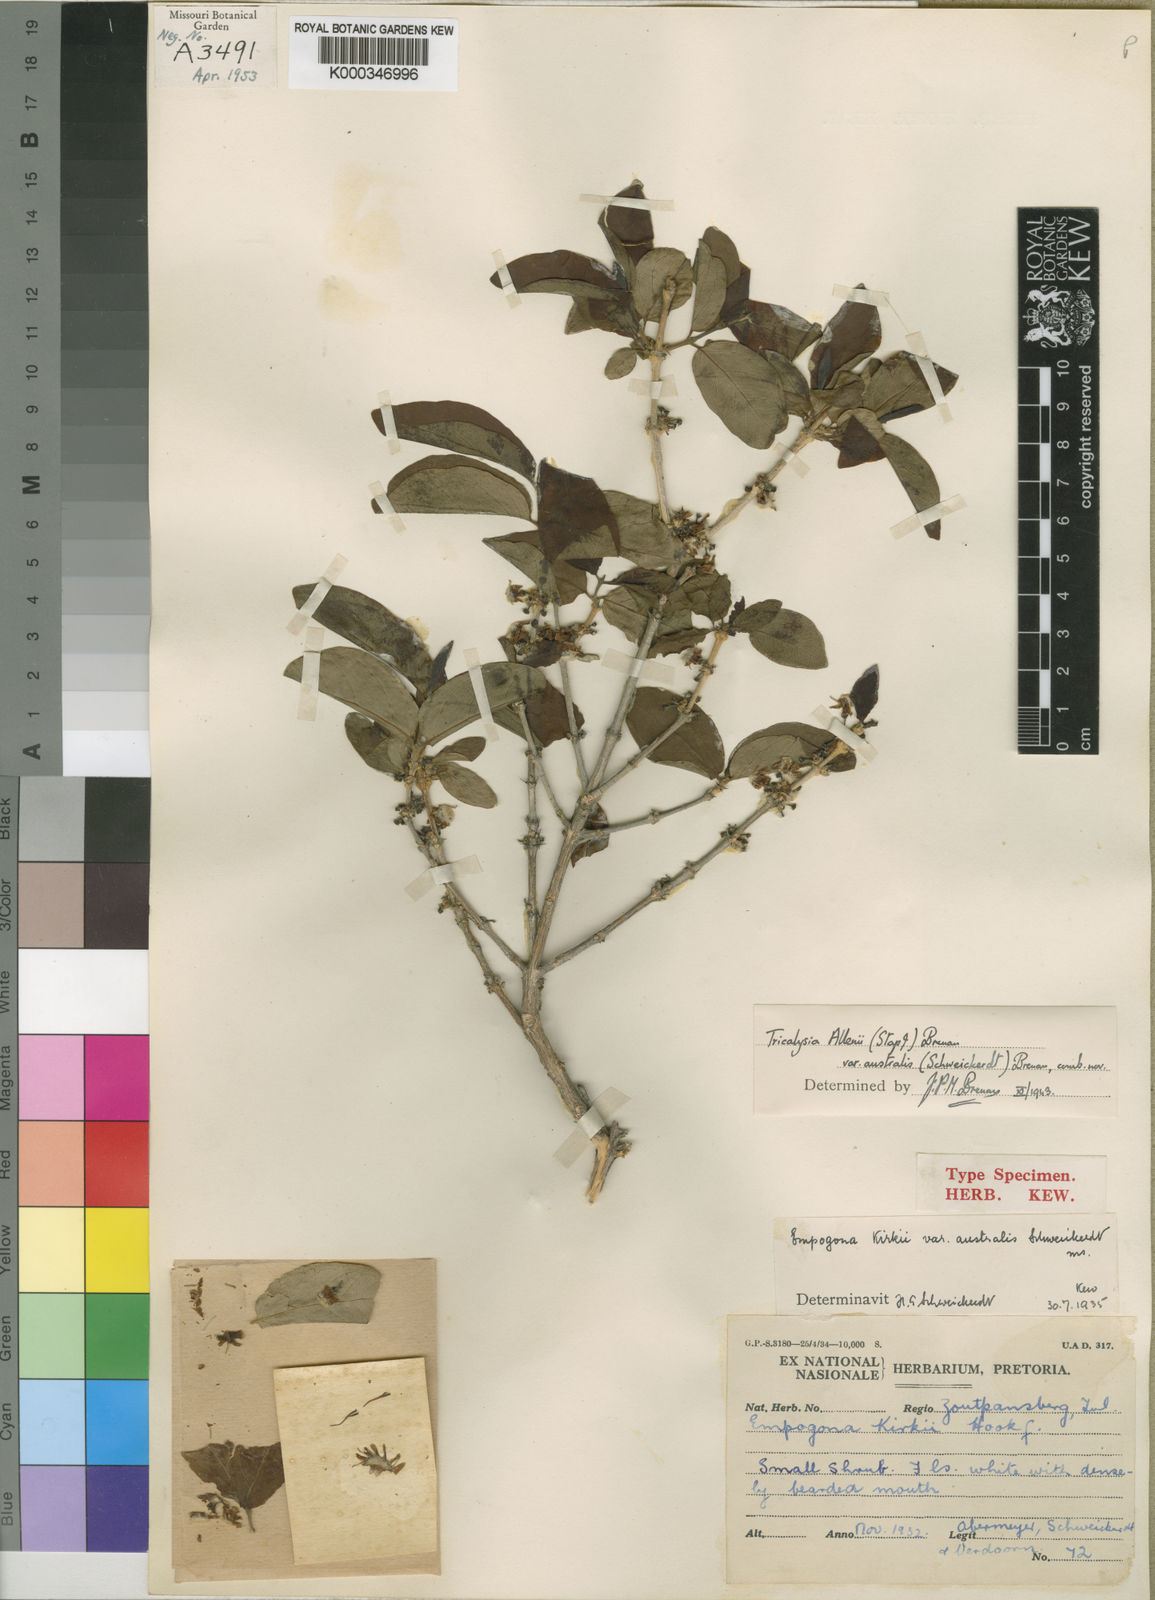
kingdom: Plantae
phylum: Tracheophyta
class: Magnoliopsida
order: Gentianales
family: Rubiaceae
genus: Empogona
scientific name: Empogona kirkii
